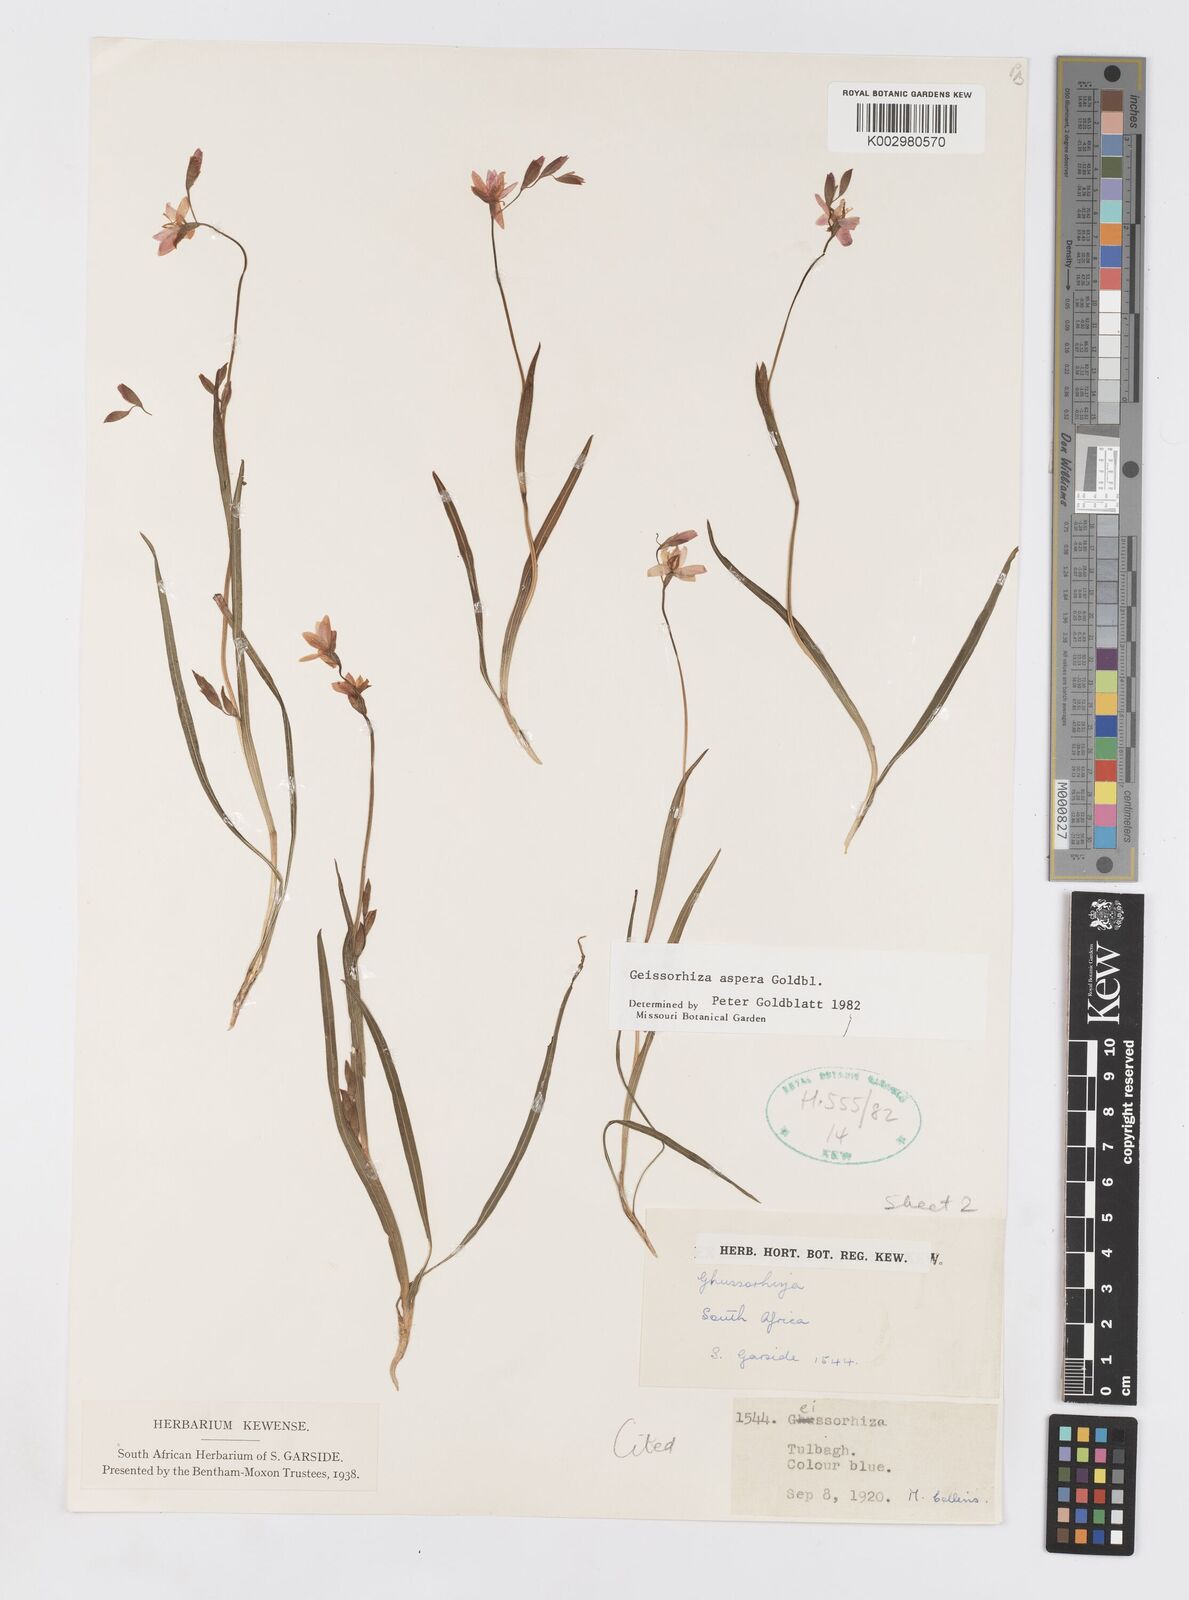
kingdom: Plantae
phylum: Tracheophyta
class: Liliopsida
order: Asparagales
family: Iridaceae
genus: Geissorhiza
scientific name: Geissorhiza aspera
